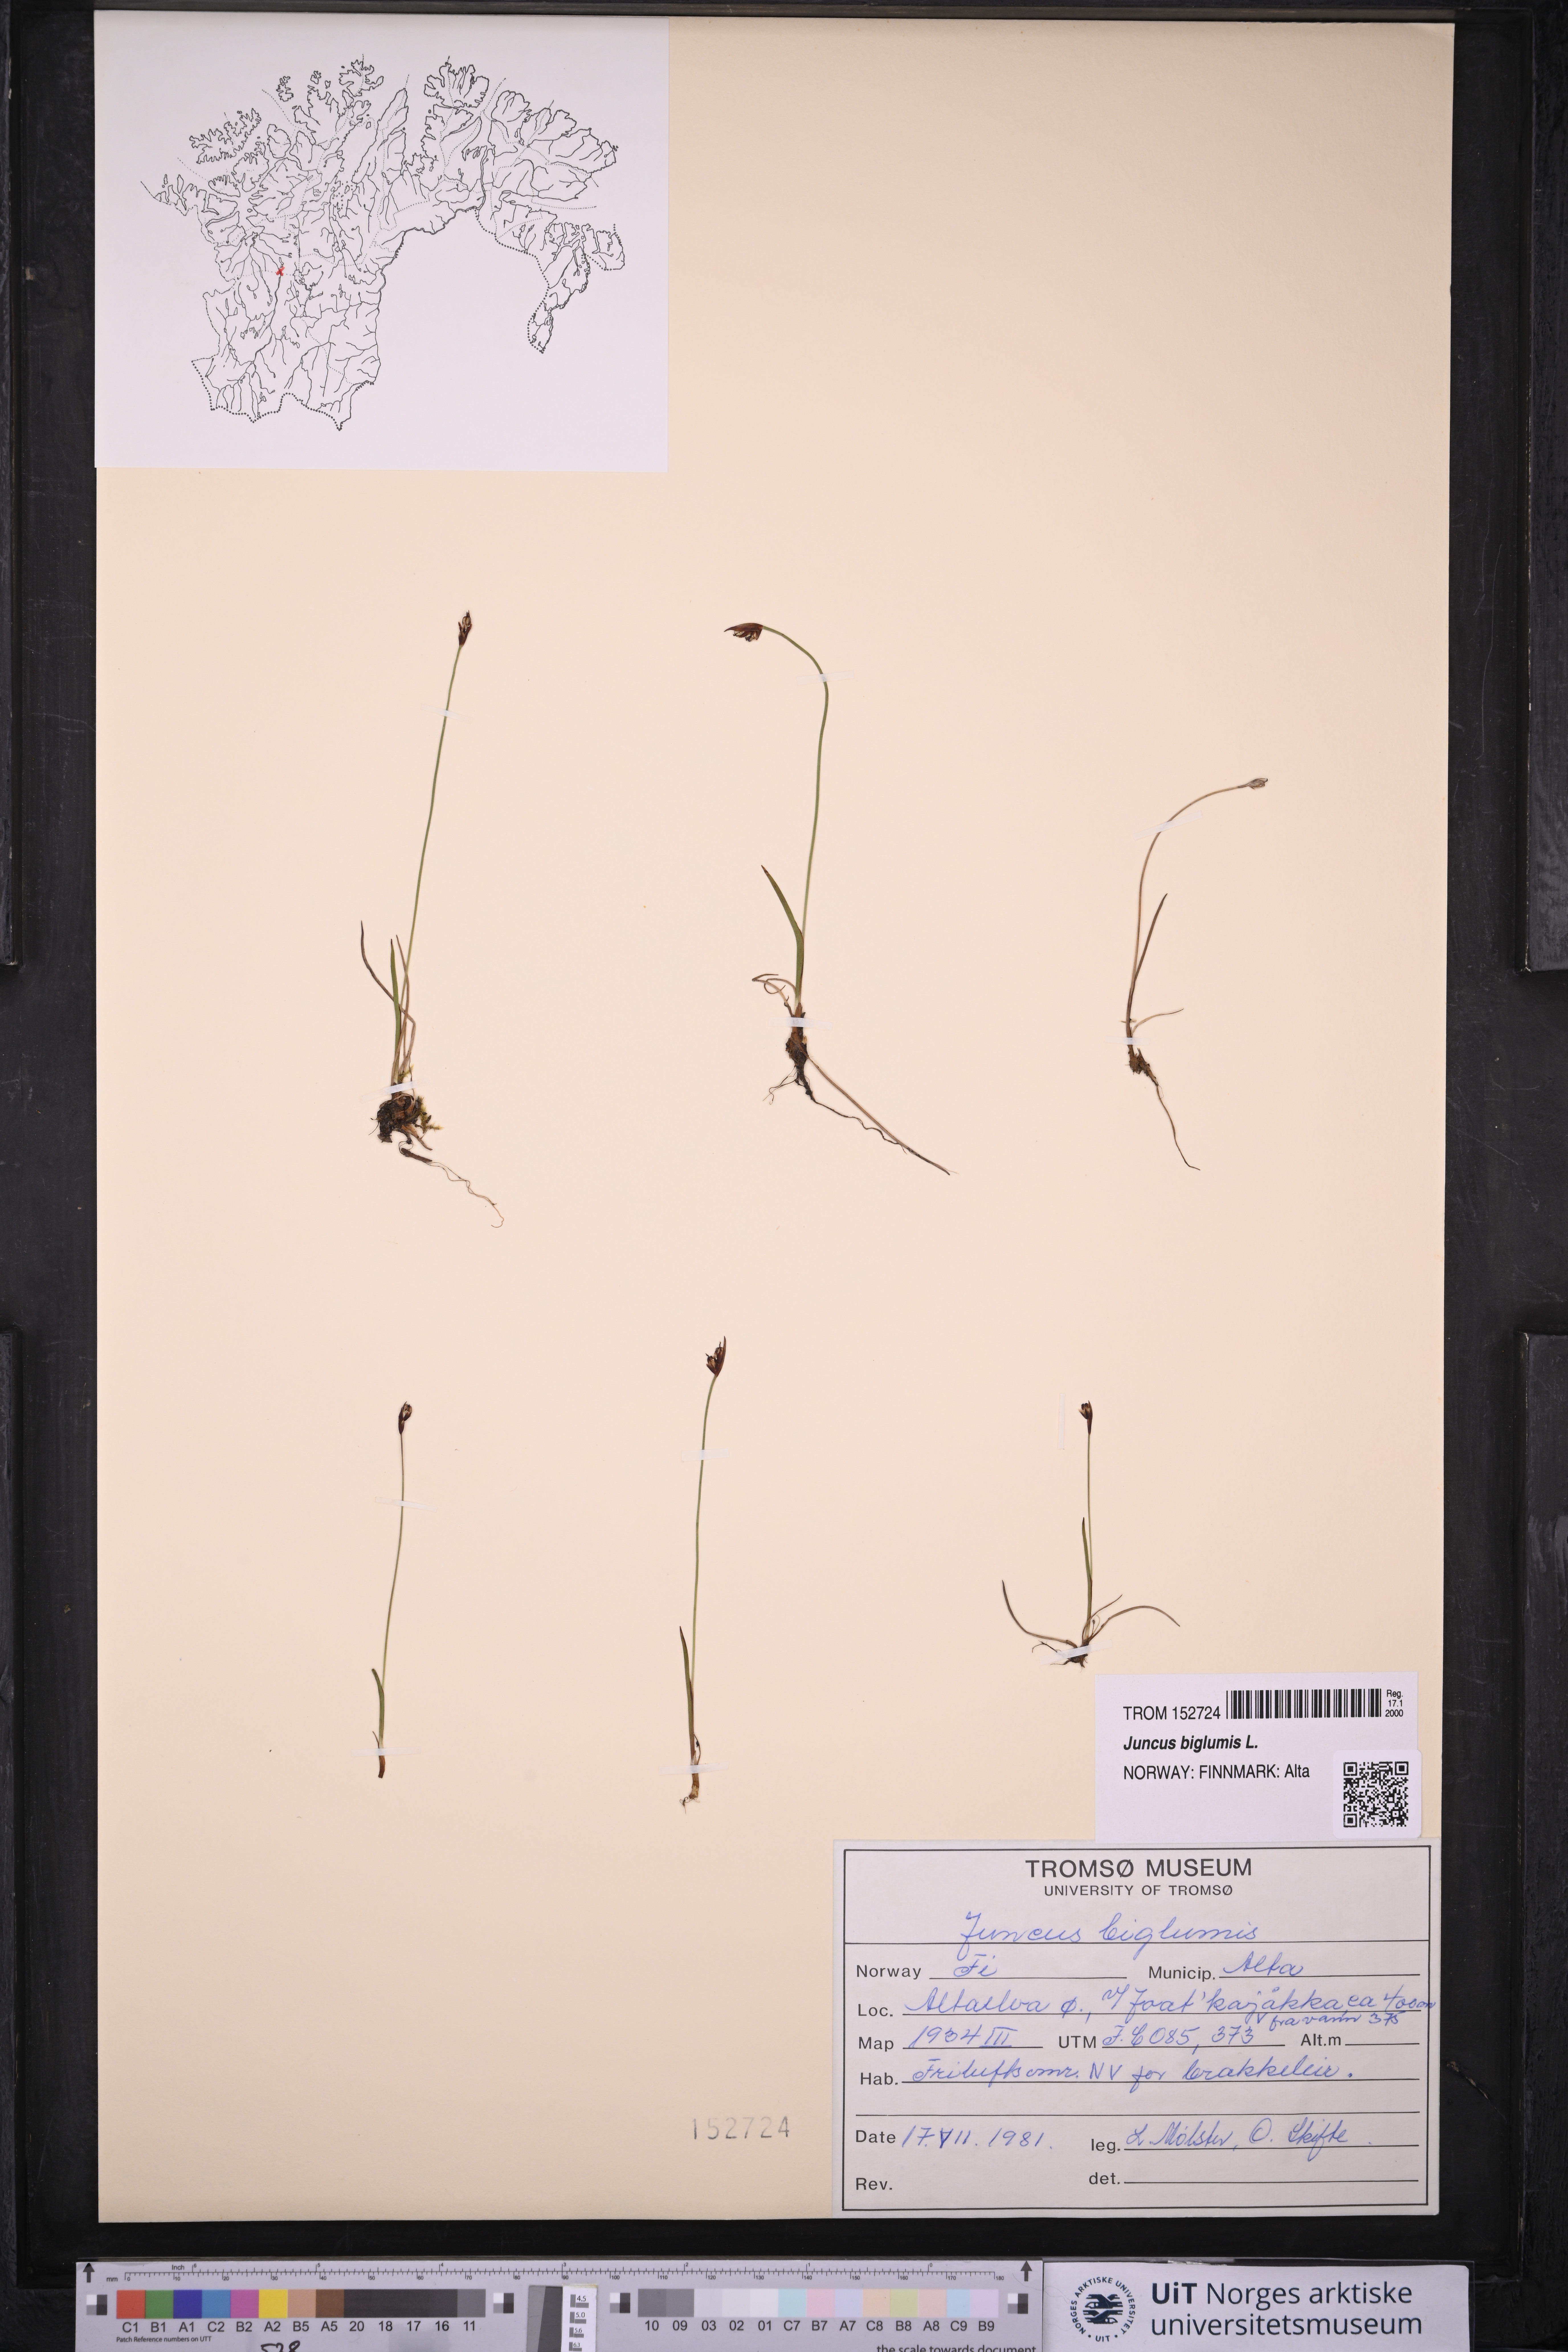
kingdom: Plantae
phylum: Tracheophyta
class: Liliopsida
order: Poales
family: Juncaceae
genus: Juncus
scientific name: Juncus biglumis
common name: Two-flowered rush
